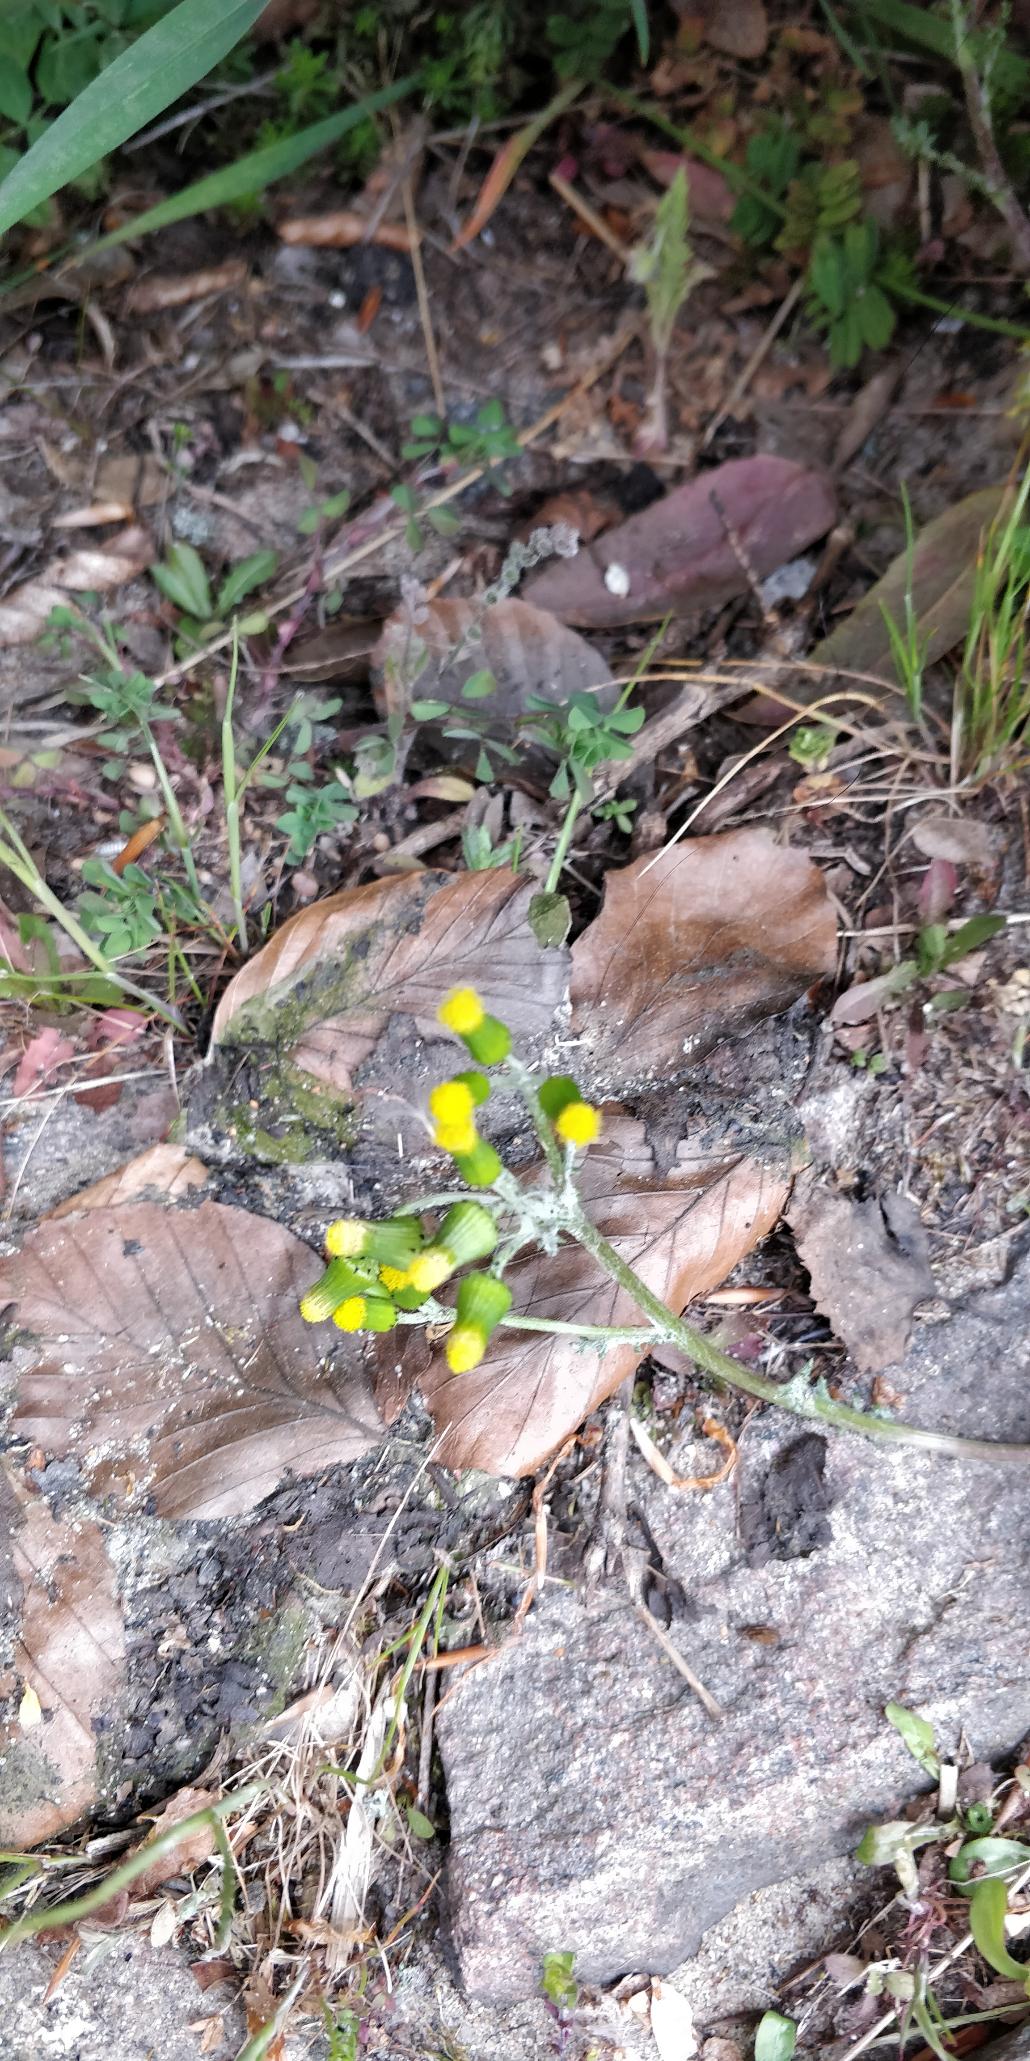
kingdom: Plantae
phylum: Tracheophyta
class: Magnoliopsida
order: Asterales
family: Asteraceae
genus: Senecio
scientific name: Senecio vulgaris
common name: Almindelig brandbæger
